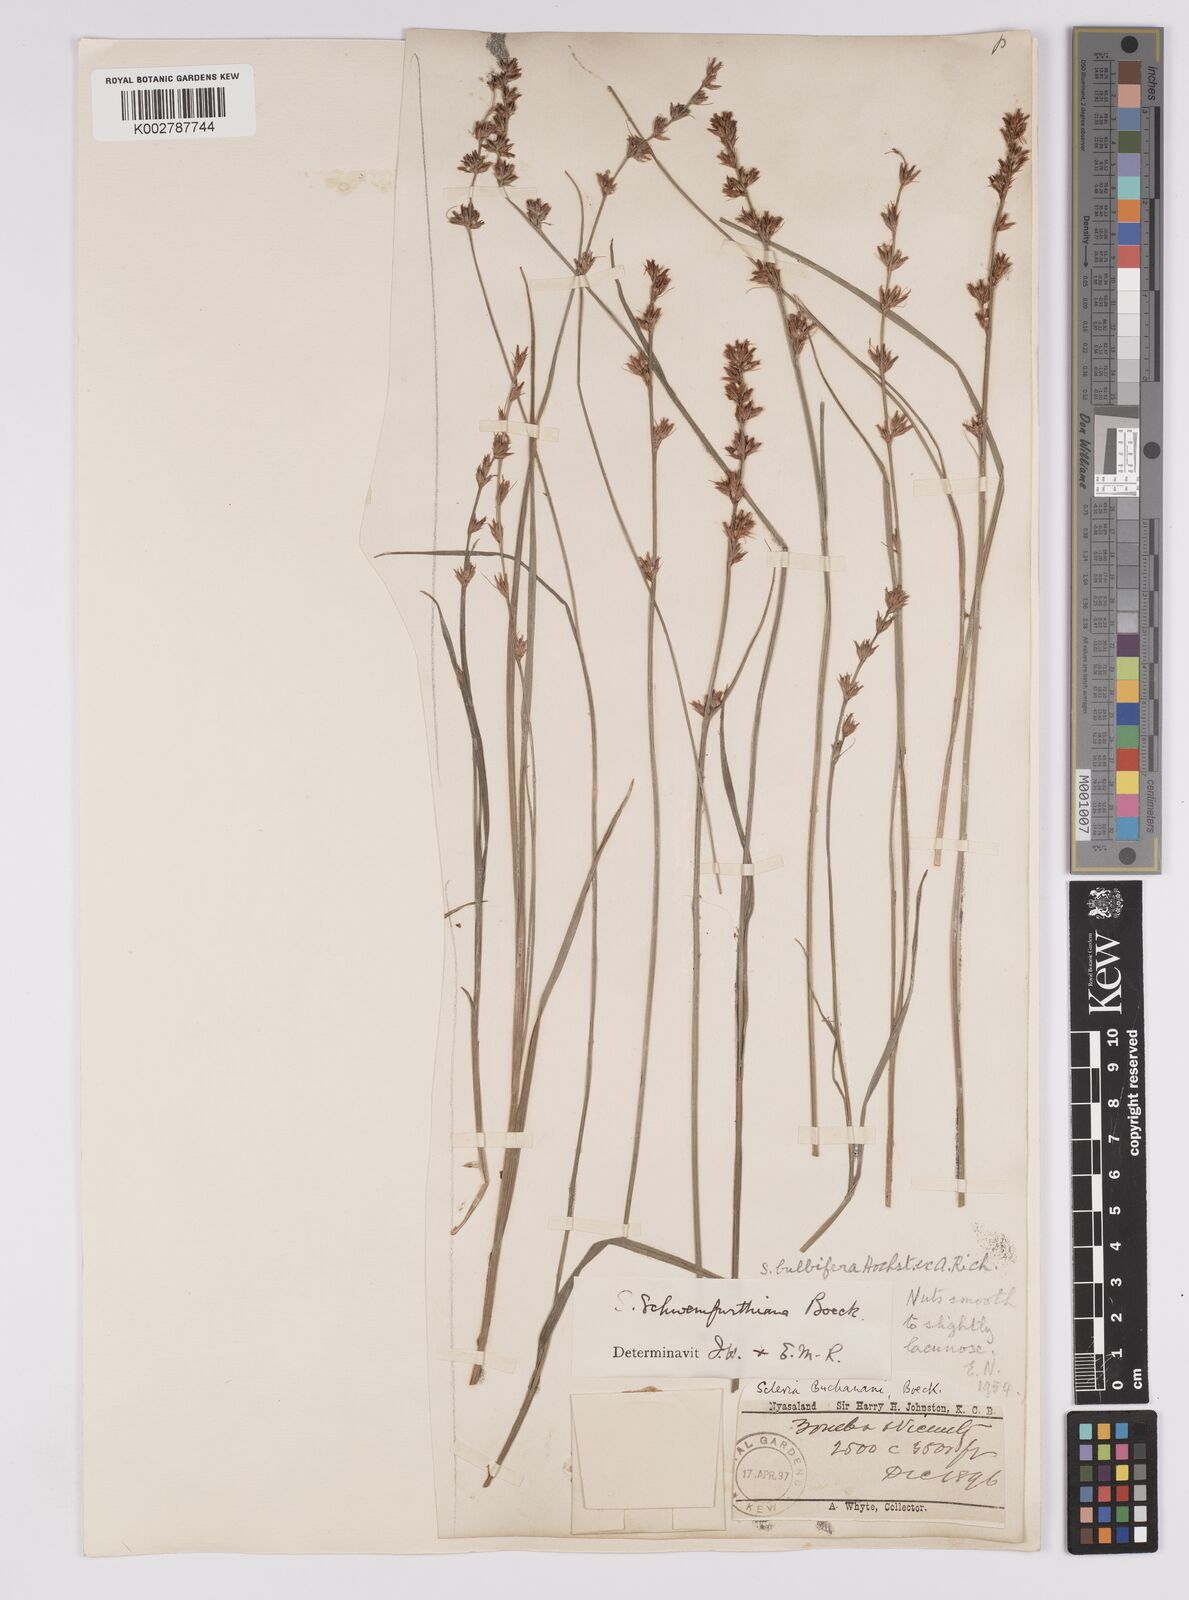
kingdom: Plantae
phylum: Tracheophyta
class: Liliopsida
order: Poales
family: Cyperaceae
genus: Scleria
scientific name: Scleria bulbifera
